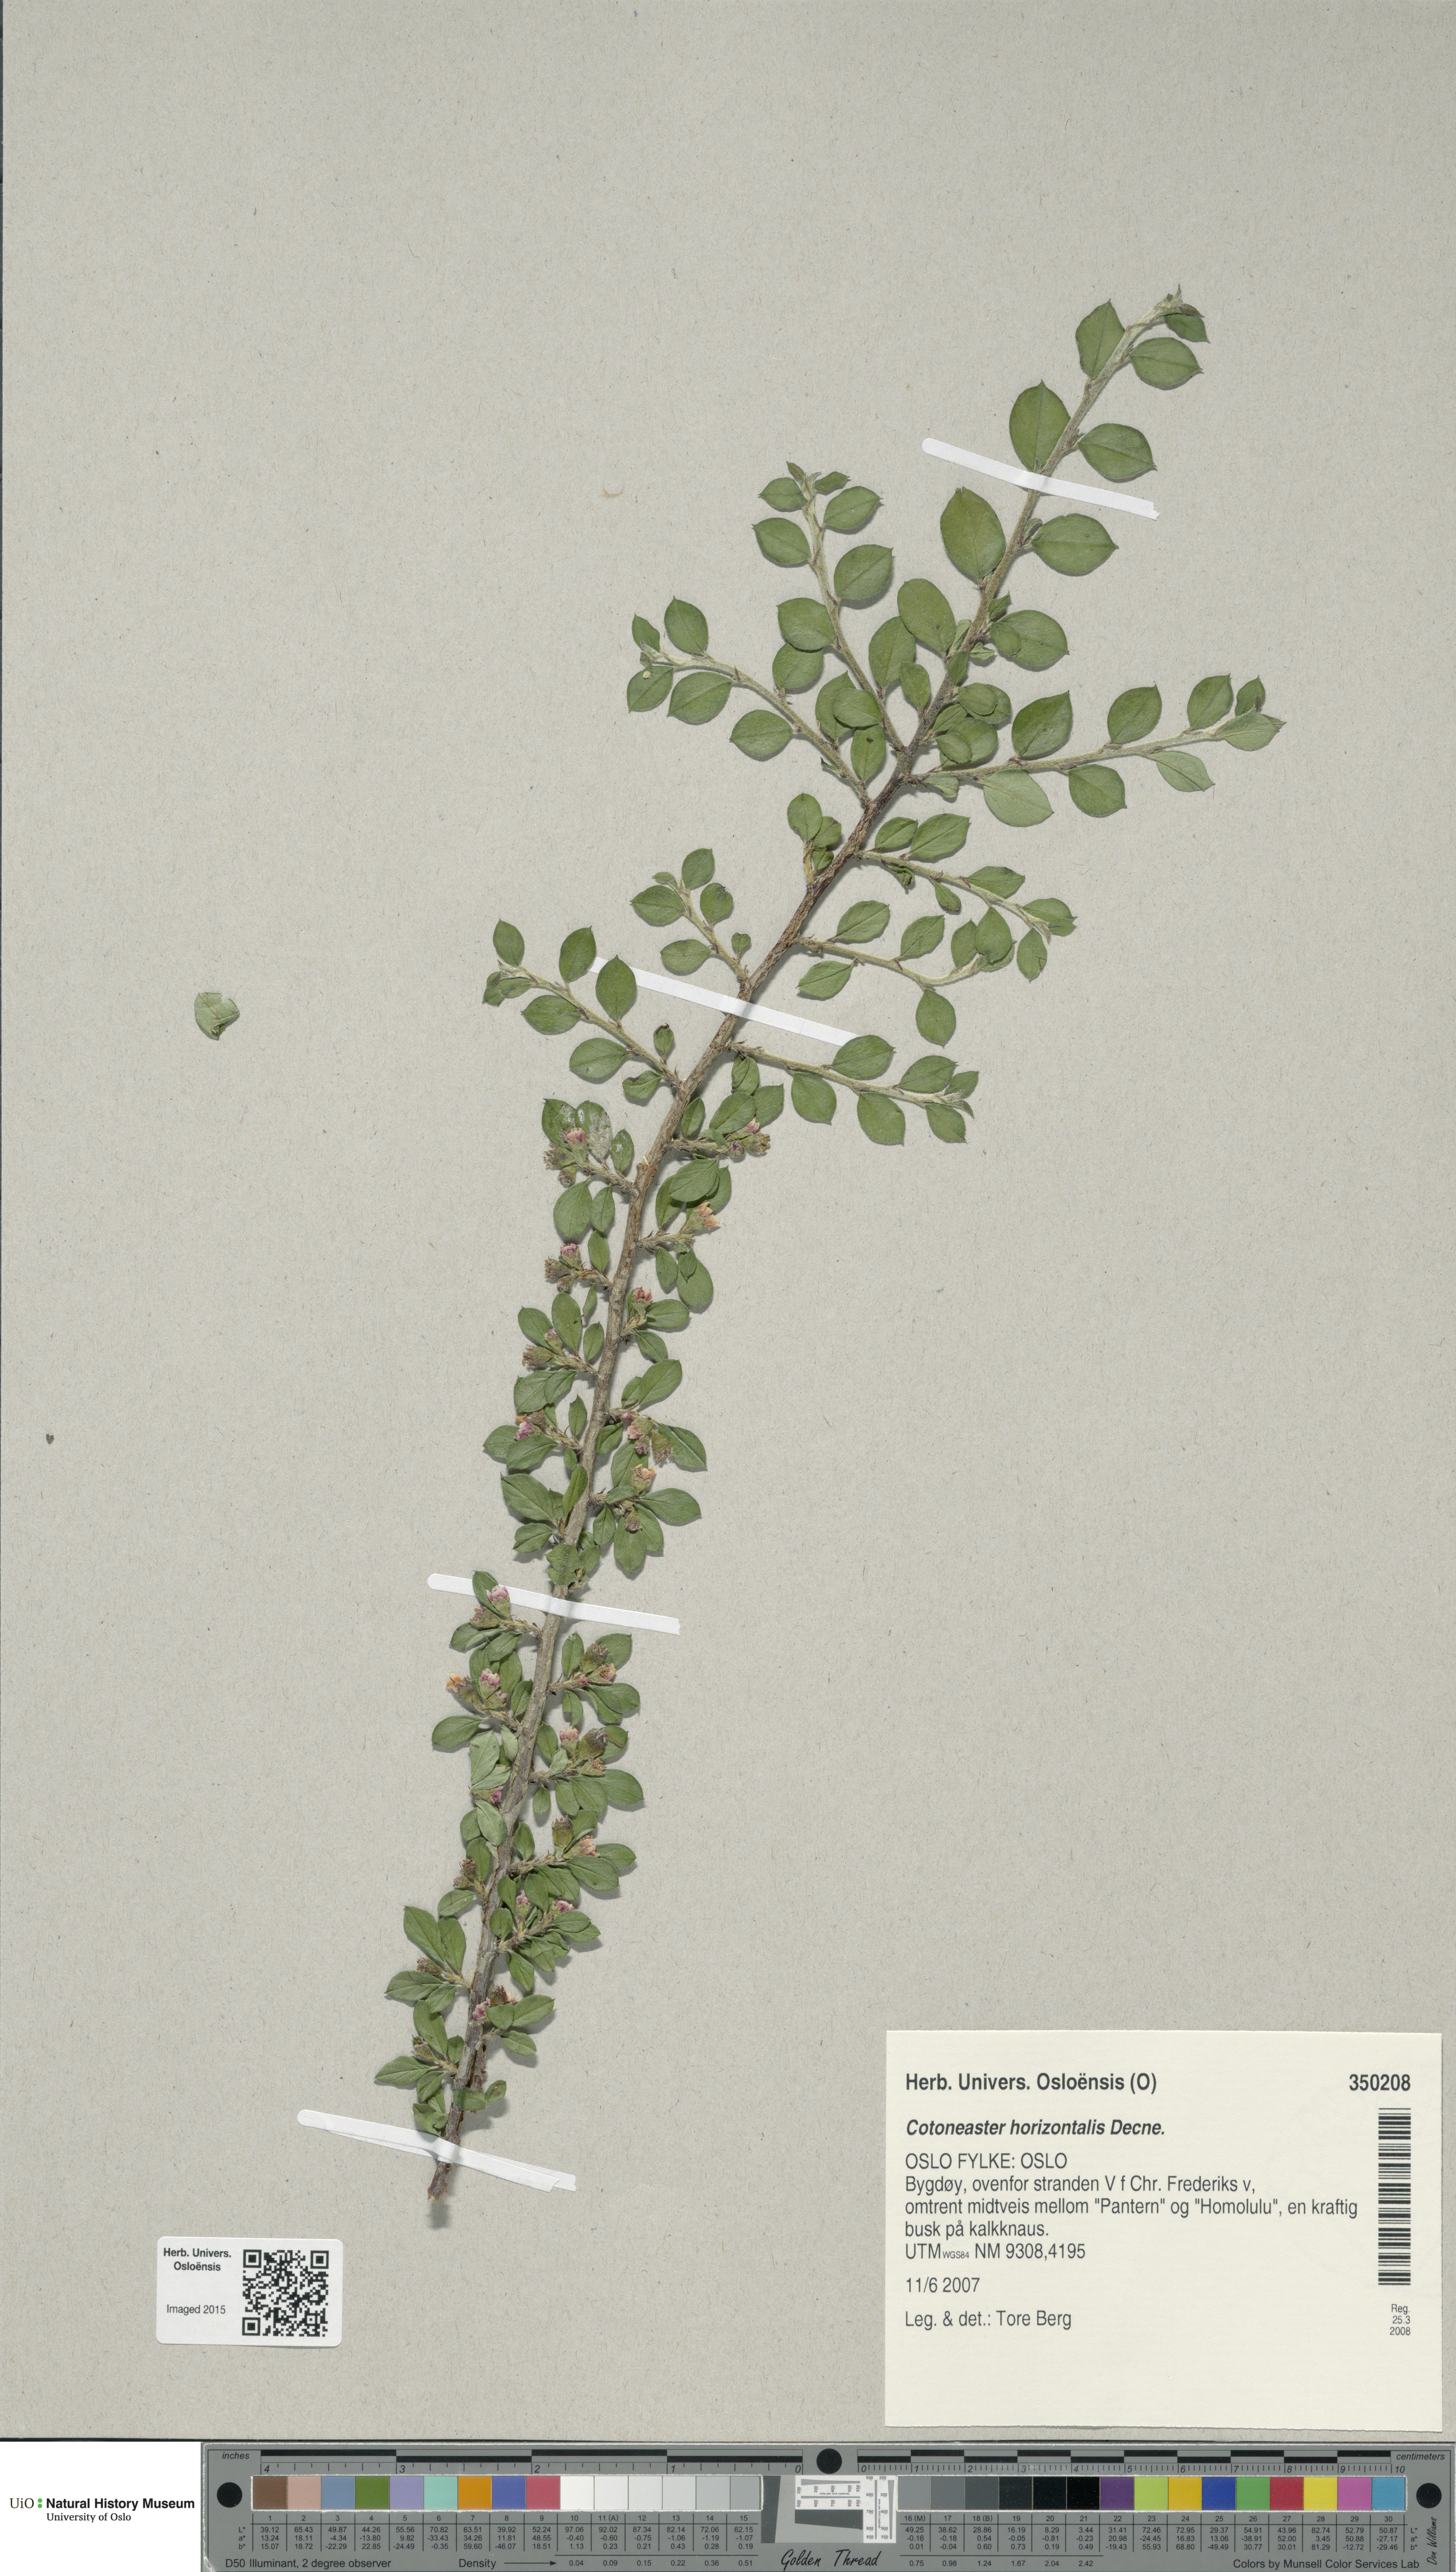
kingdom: Plantae
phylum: Tracheophyta
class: Magnoliopsida
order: Rosales
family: Rosaceae
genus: Cotoneaster
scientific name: Cotoneaster horizontalis
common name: Wall cotoneaster
